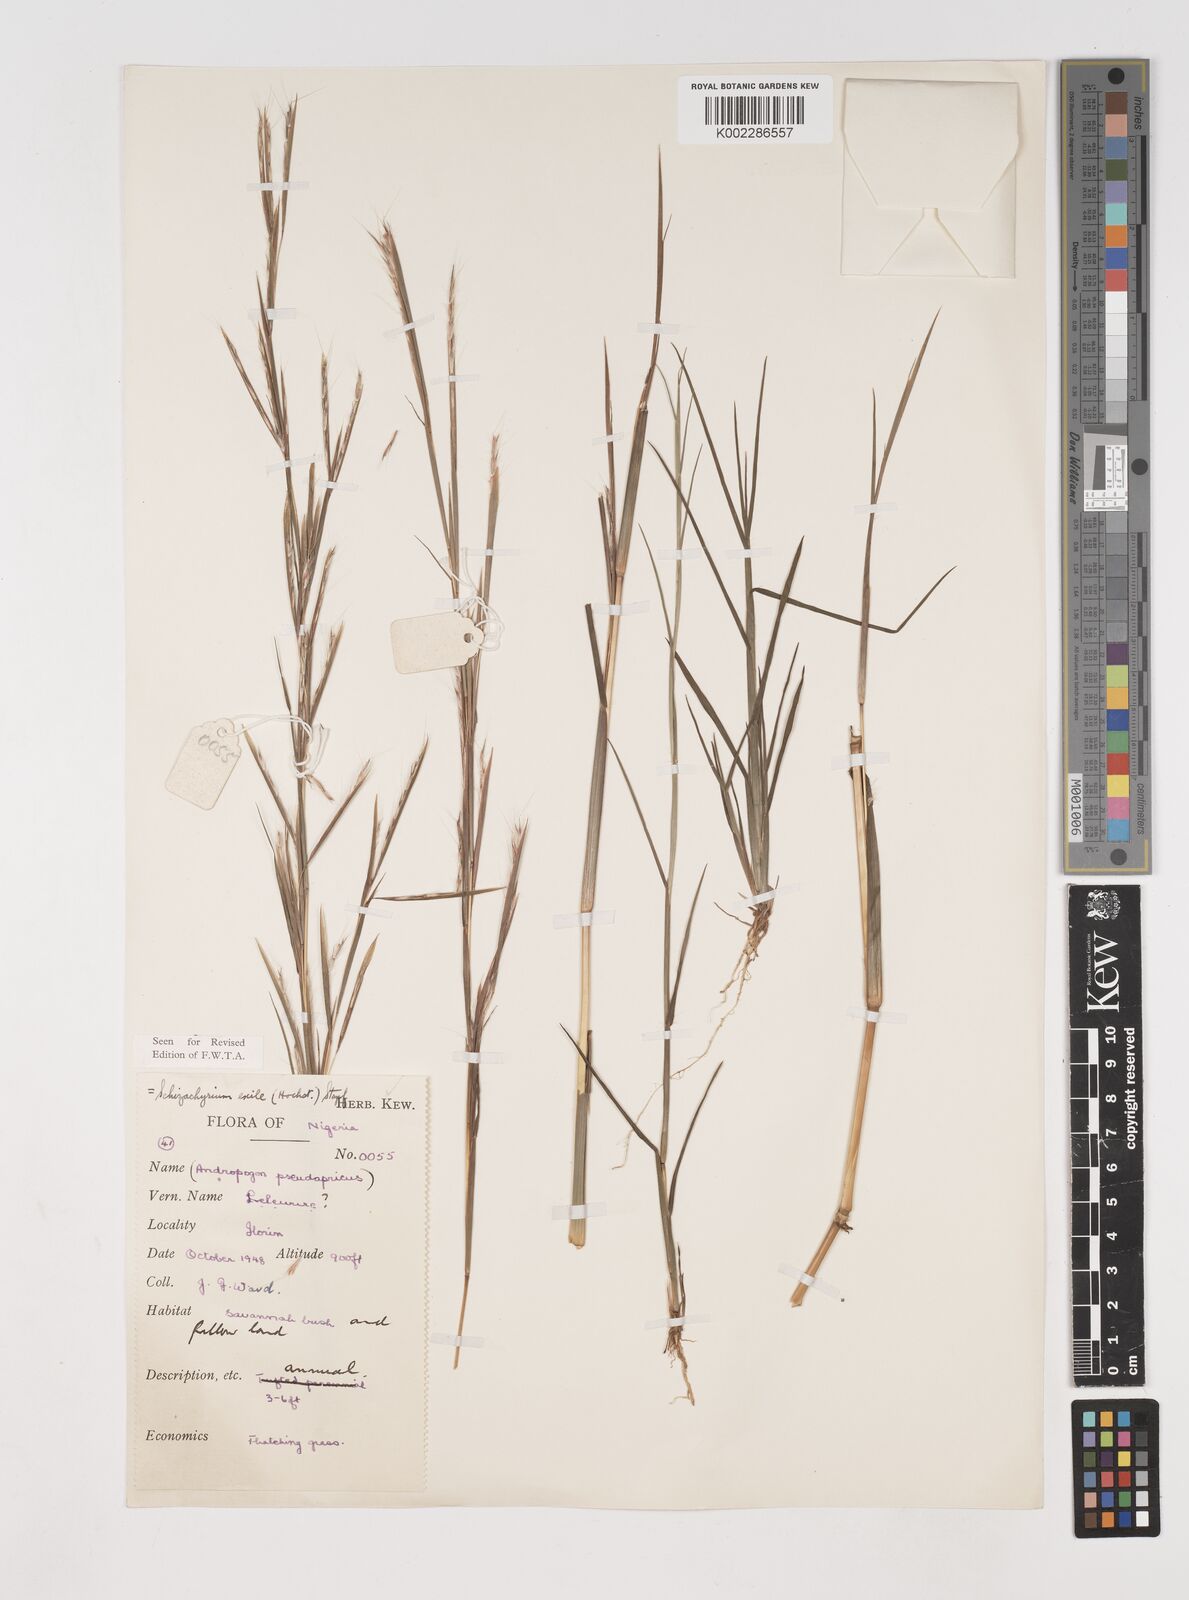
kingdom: Plantae
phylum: Tracheophyta
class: Liliopsida
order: Poales
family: Poaceae
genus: Schizachyrium
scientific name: Schizachyrium exile
